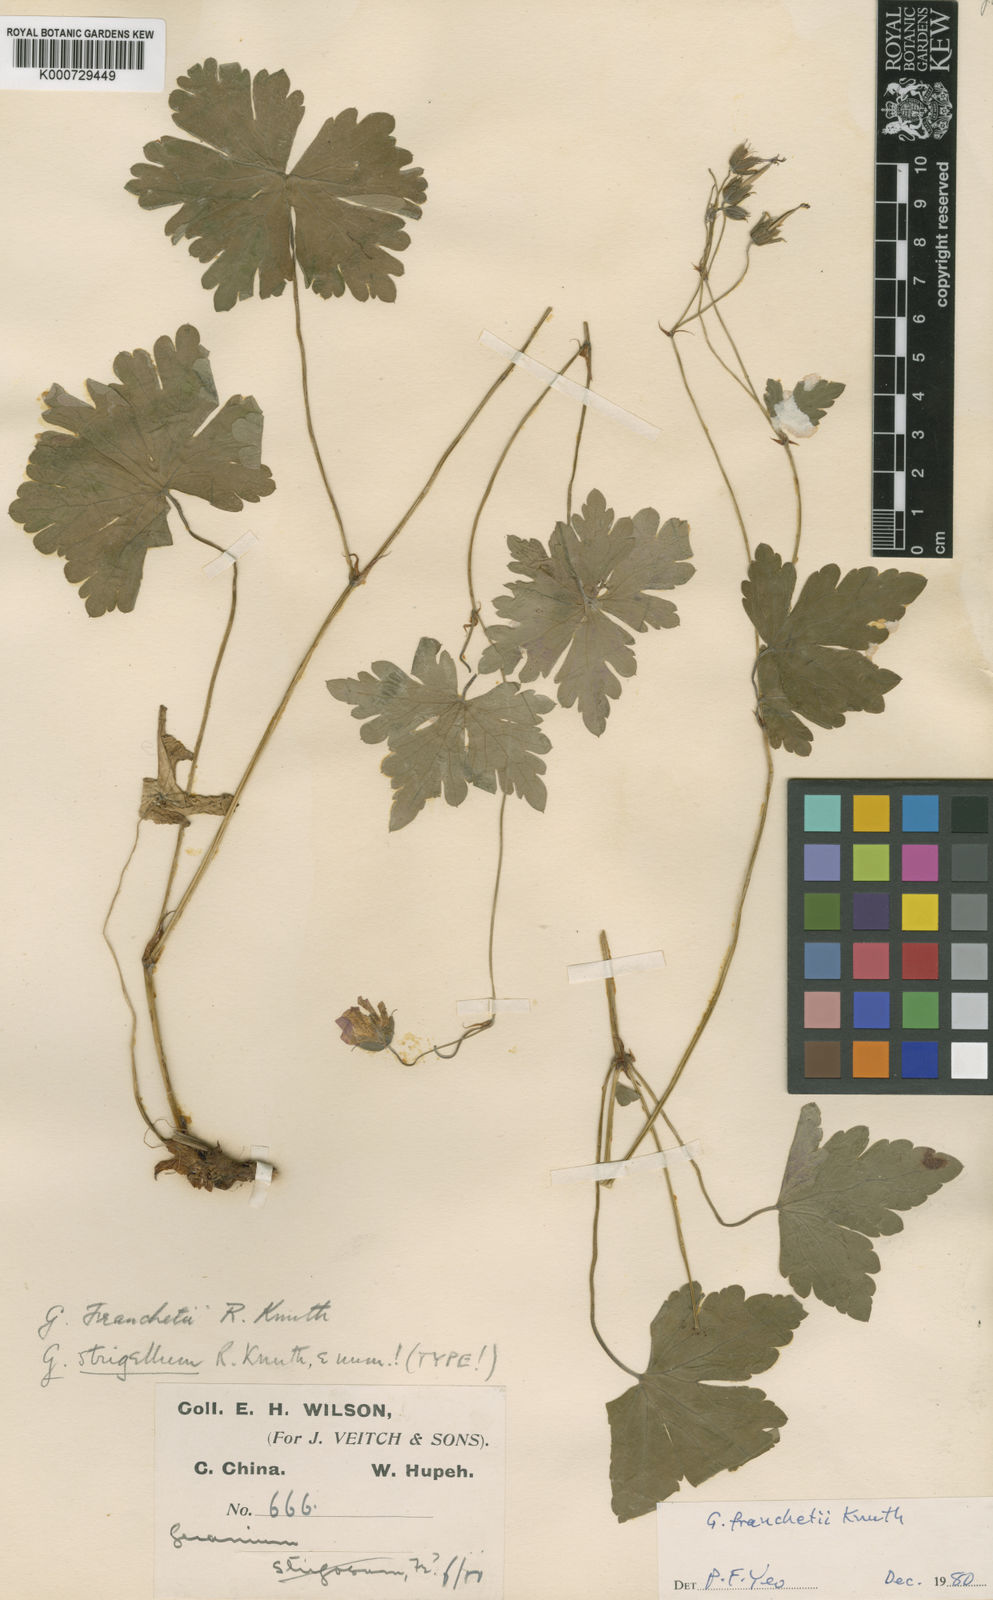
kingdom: Plantae
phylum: Tracheophyta
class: Magnoliopsida
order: Geraniales
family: Geraniaceae
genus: Geranium
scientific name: Geranium franchetii
